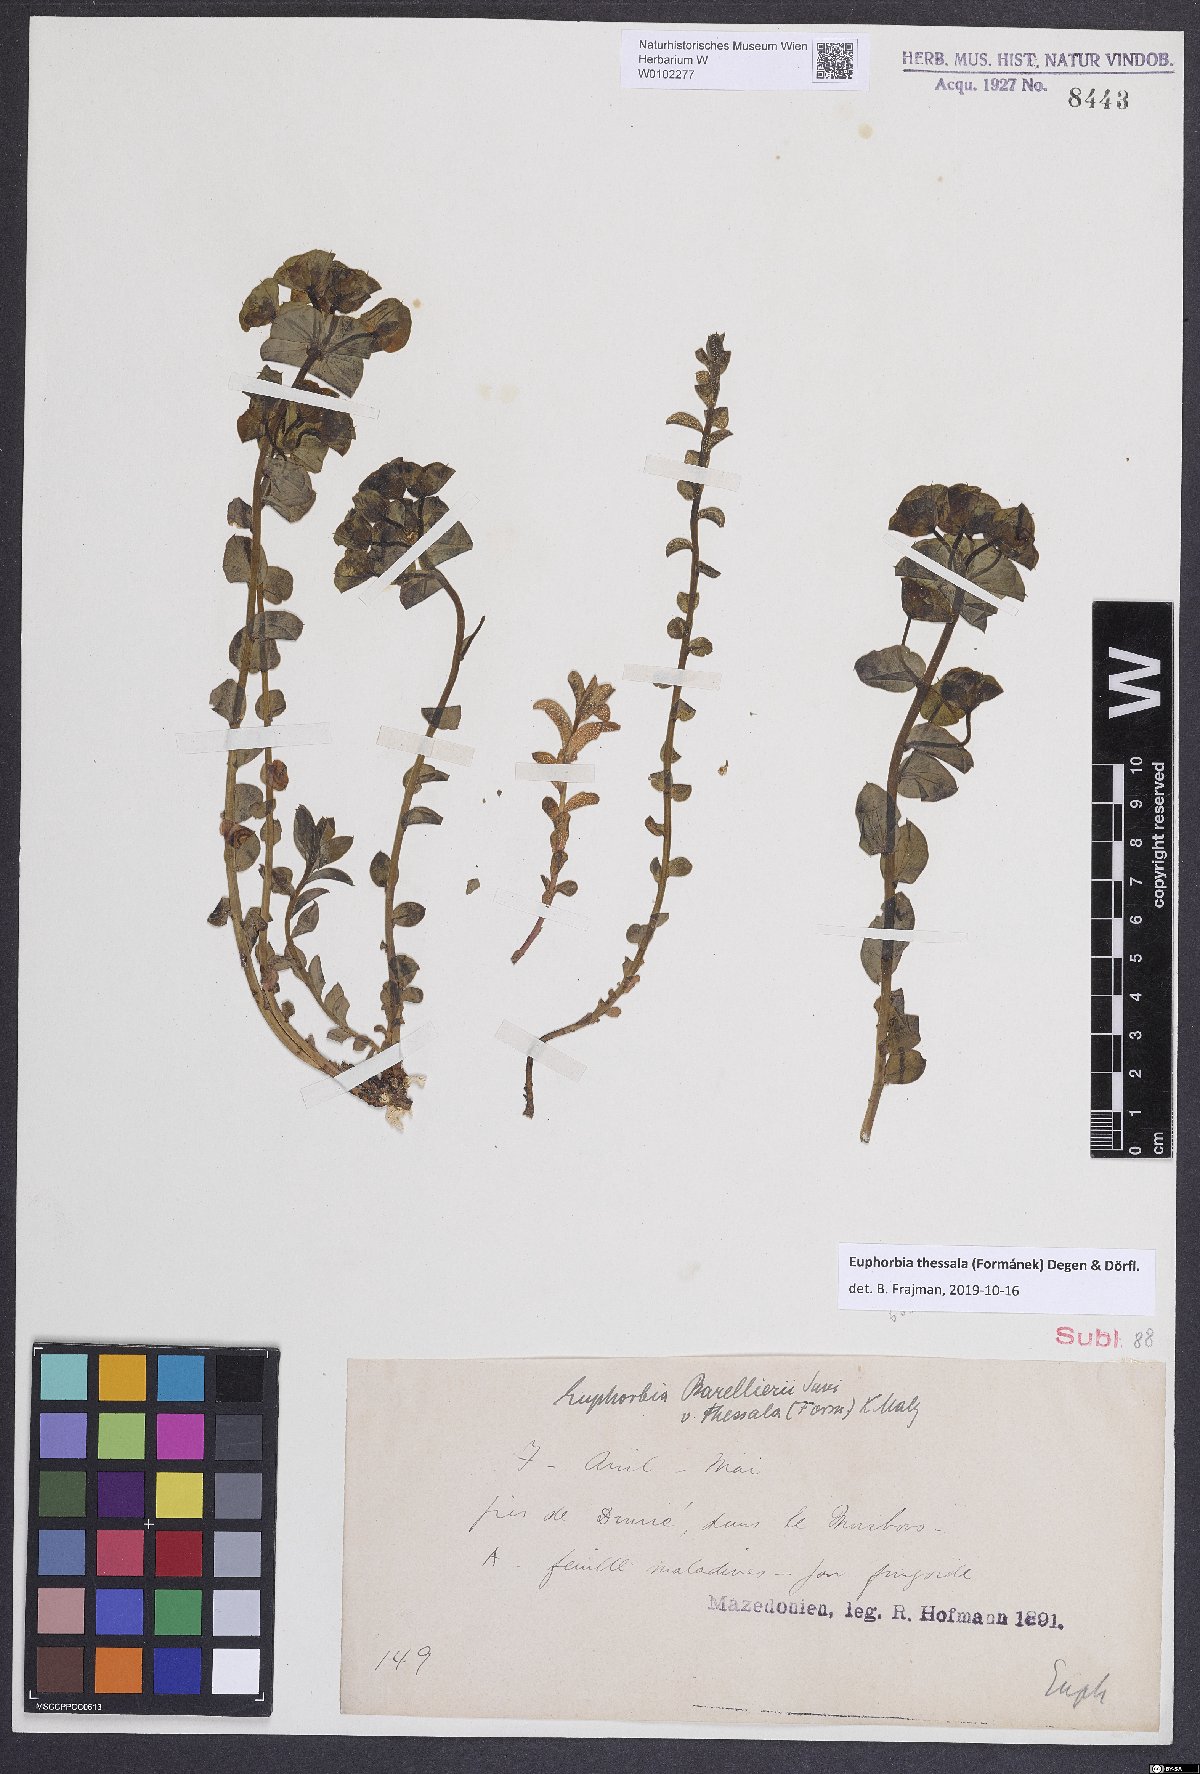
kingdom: Plantae
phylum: Tracheophyta
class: Magnoliopsida
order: Malpighiales
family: Euphorbiaceae
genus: Euphorbia
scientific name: Euphorbia barrelieri
